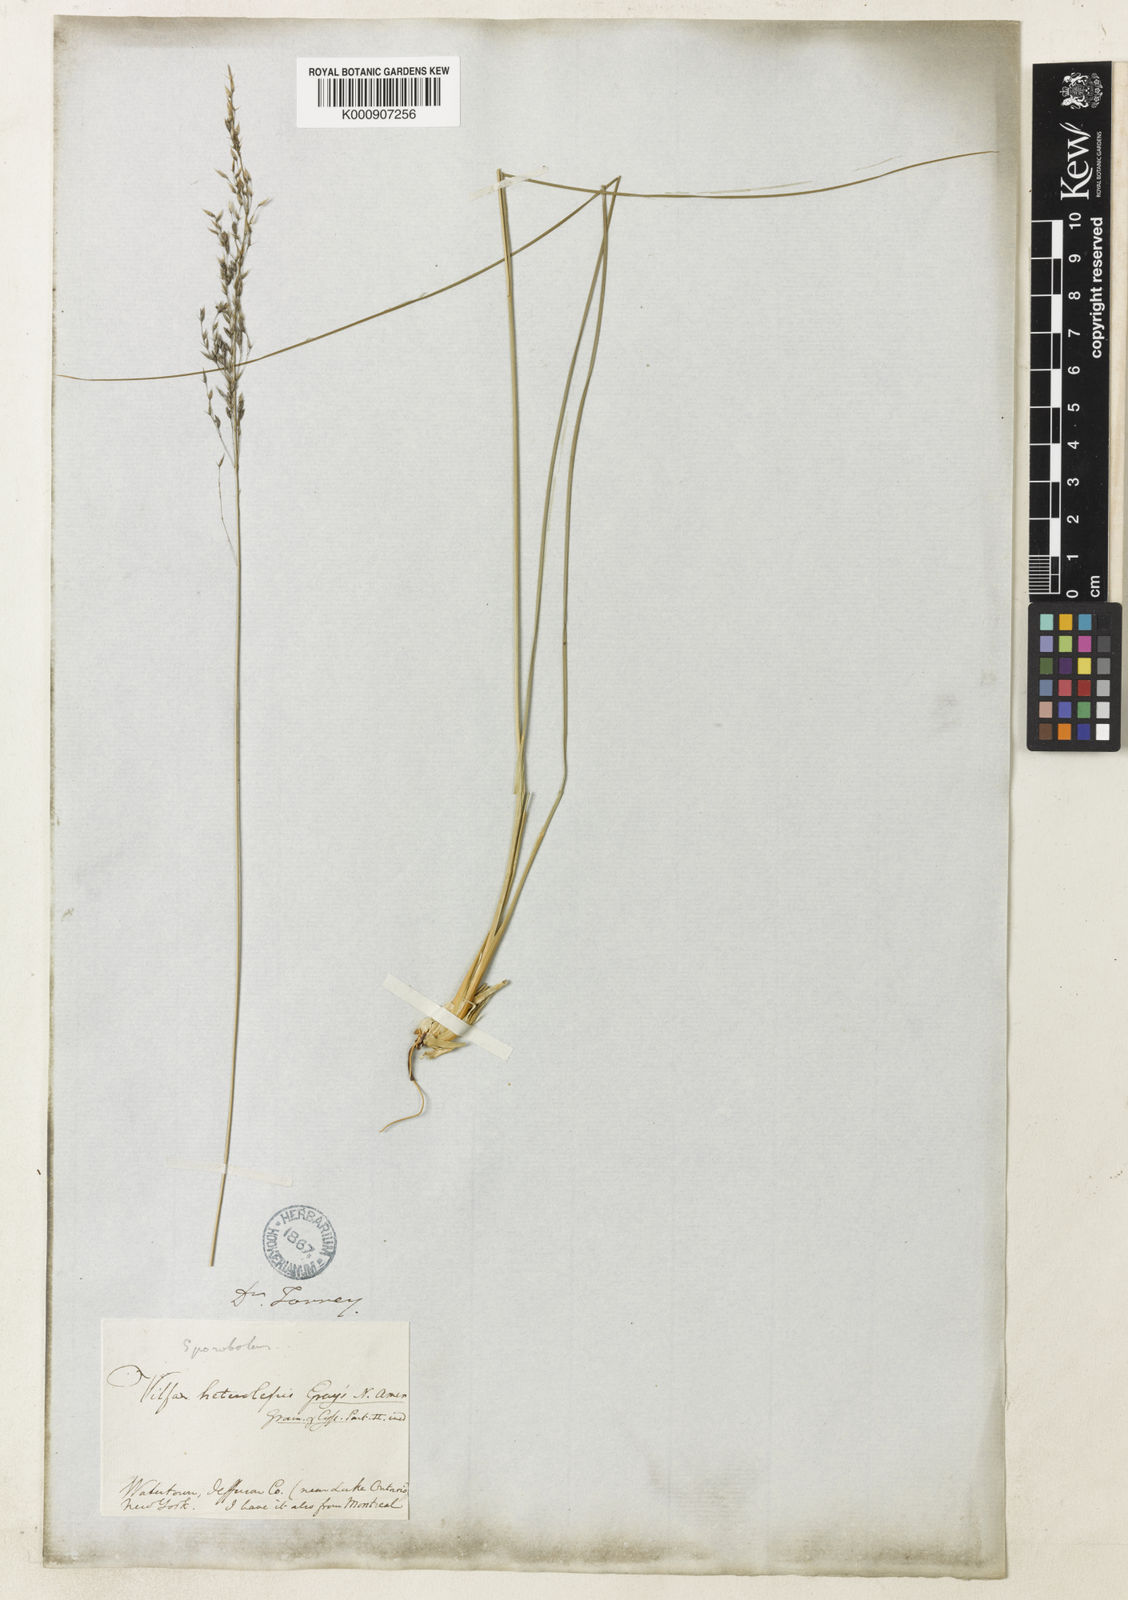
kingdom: Plantae
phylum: Tracheophyta
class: Liliopsida
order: Poales
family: Poaceae
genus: Sporobolus
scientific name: Sporobolus heterolepis
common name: Prairie dropseed
